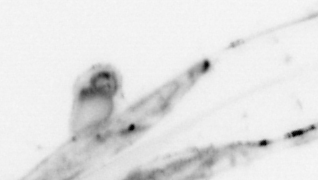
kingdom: Animalia
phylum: Chaetognatha
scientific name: Chaetognatha
